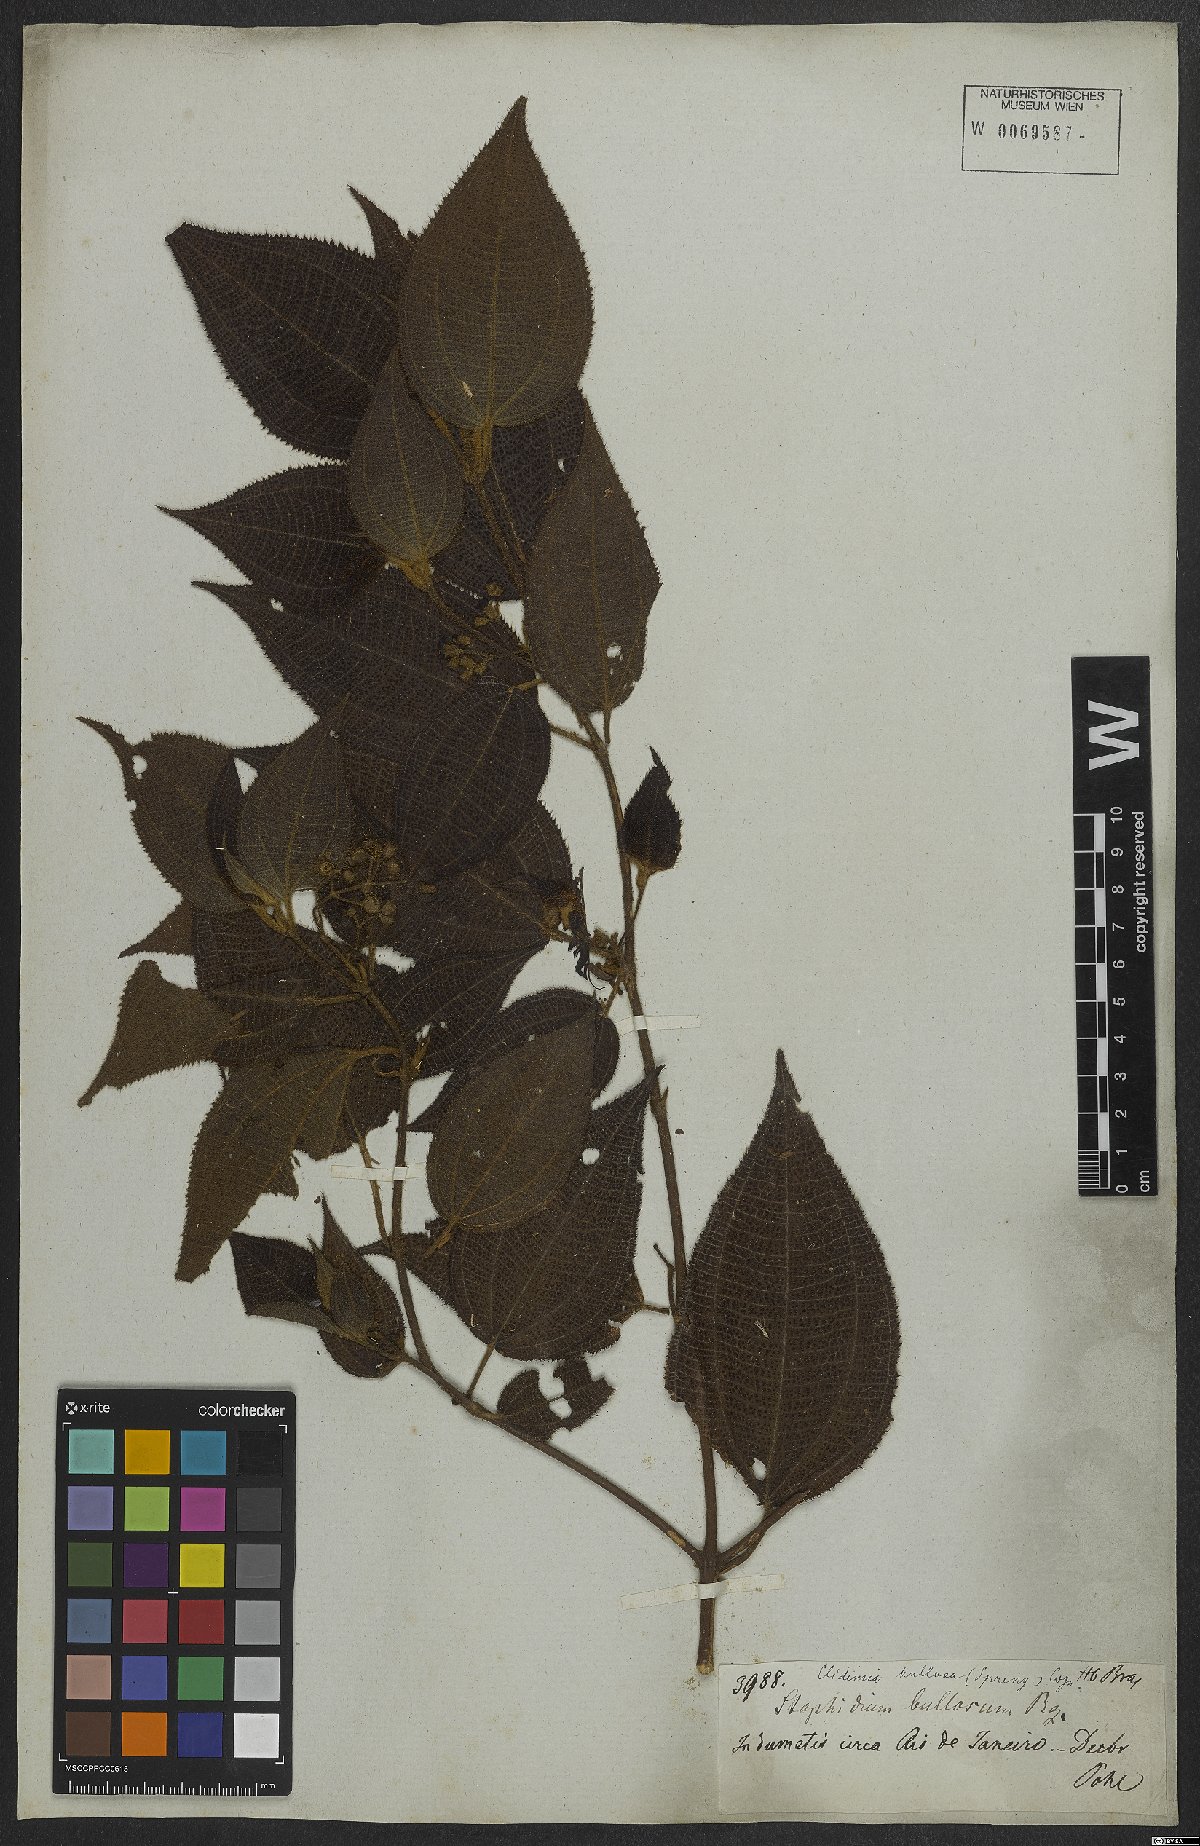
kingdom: Plantae
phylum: Tracheophyta
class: Magnoliopsida
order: Myrtales
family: Melastomataceae
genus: Miconia
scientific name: Miconia bullosa
